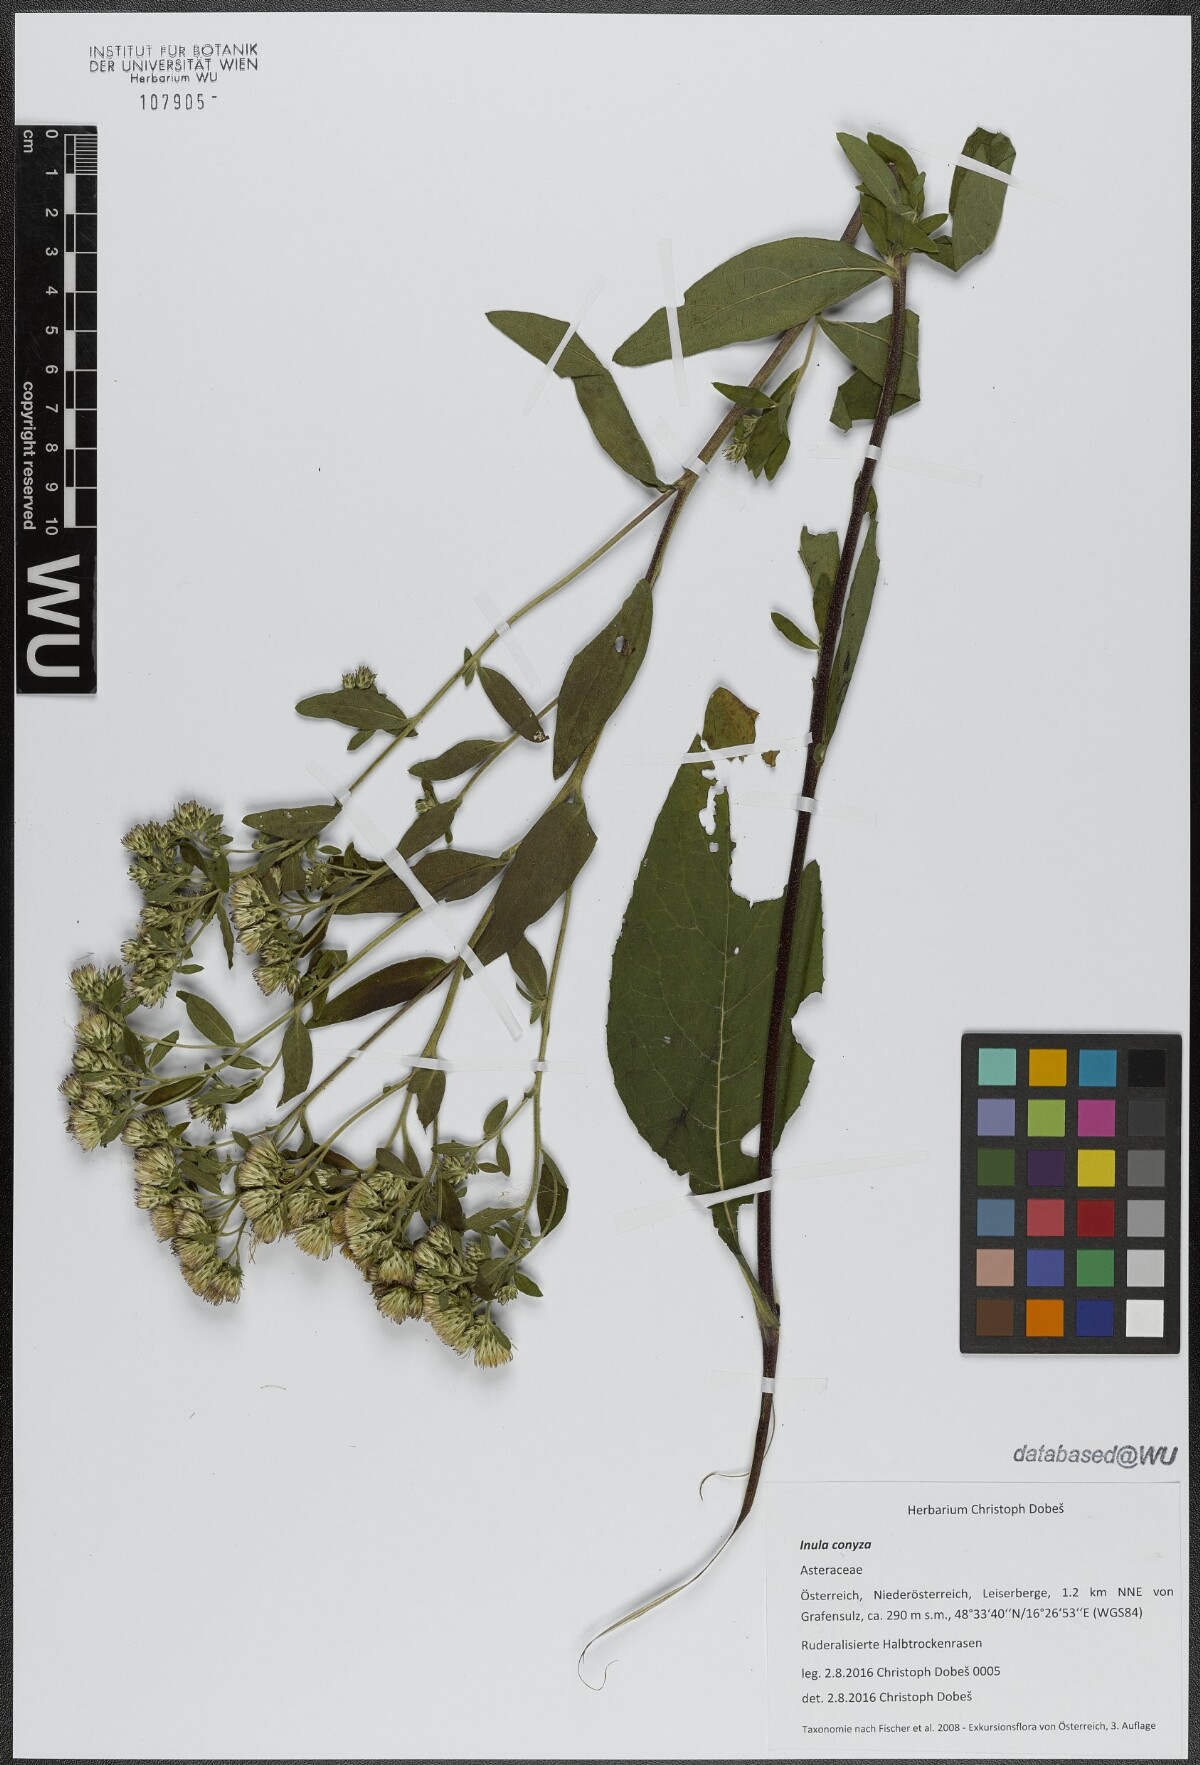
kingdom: Plantae
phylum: Tracheophyta
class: Magnoliopsida
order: Asterales
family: Asteraceae
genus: Pentanema
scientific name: Pentanema squarrosum
